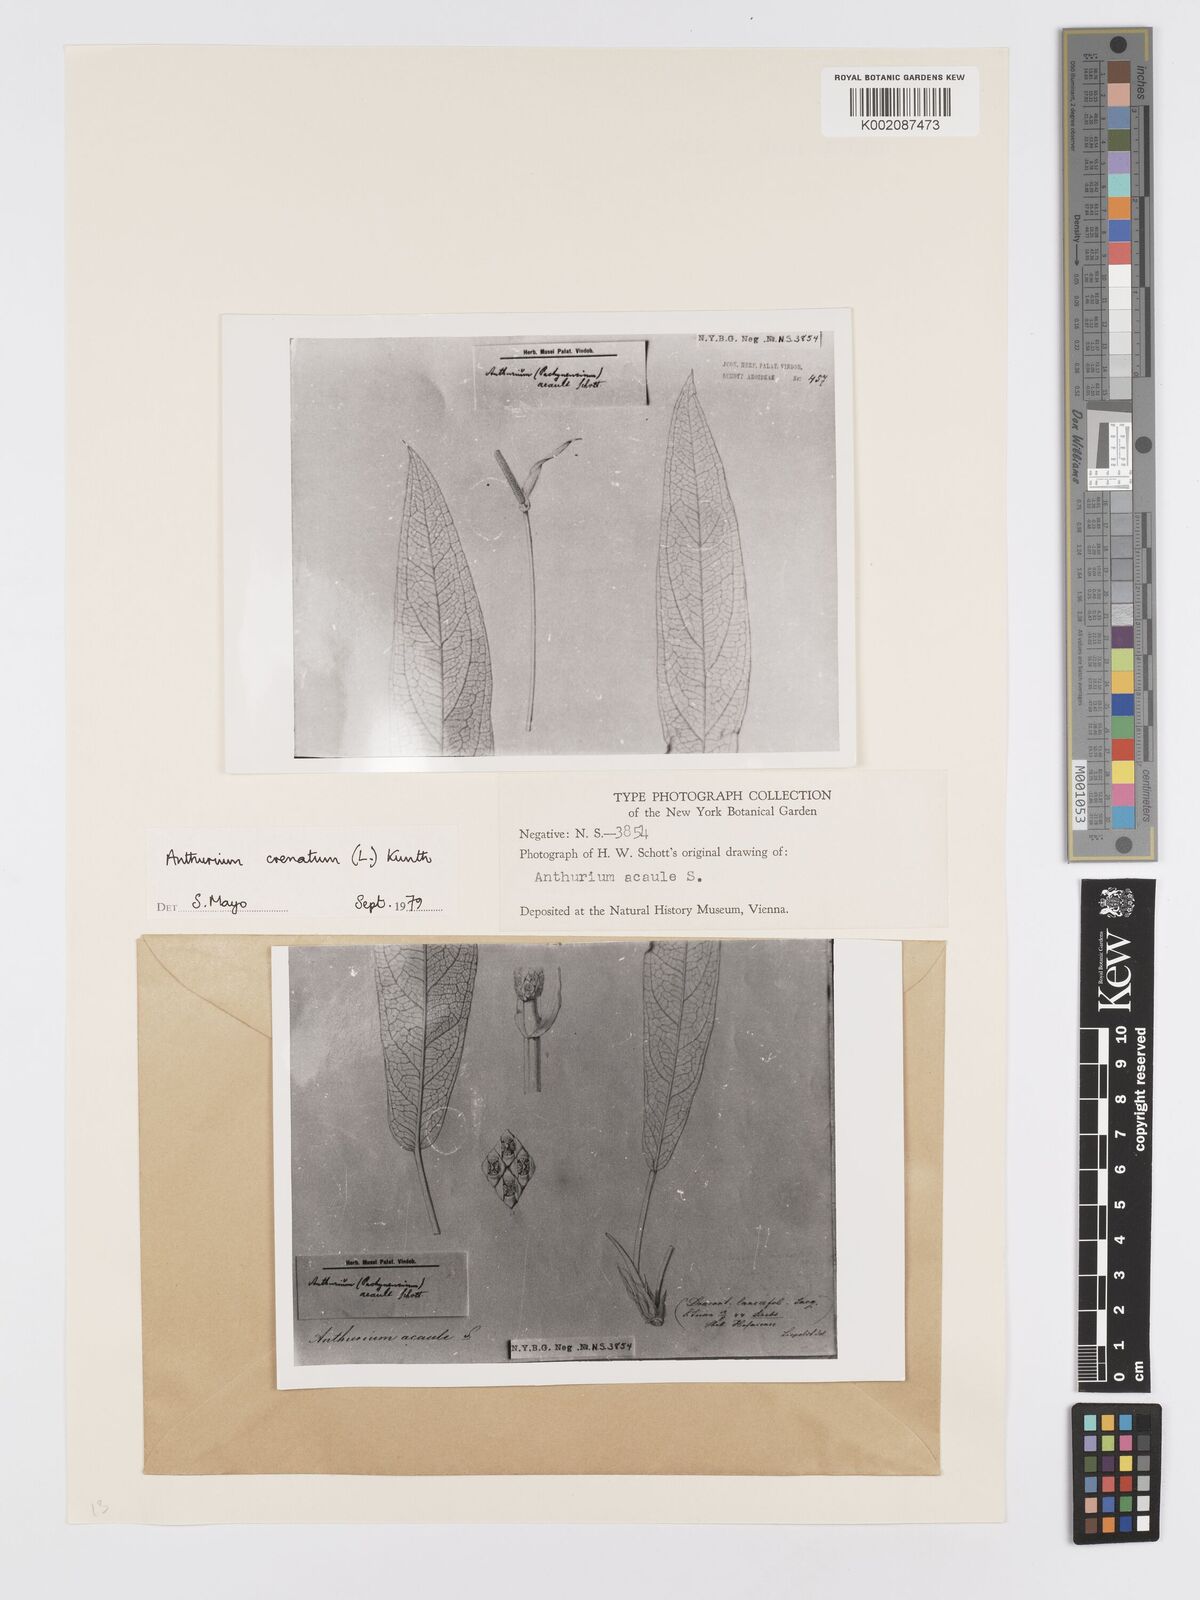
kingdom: Plantae
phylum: Tracheophyta
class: Liliopsida
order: Alismatales
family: Araceae
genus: Anthurium
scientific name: Anthurium crenatum
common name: Scalloped laceleaf
